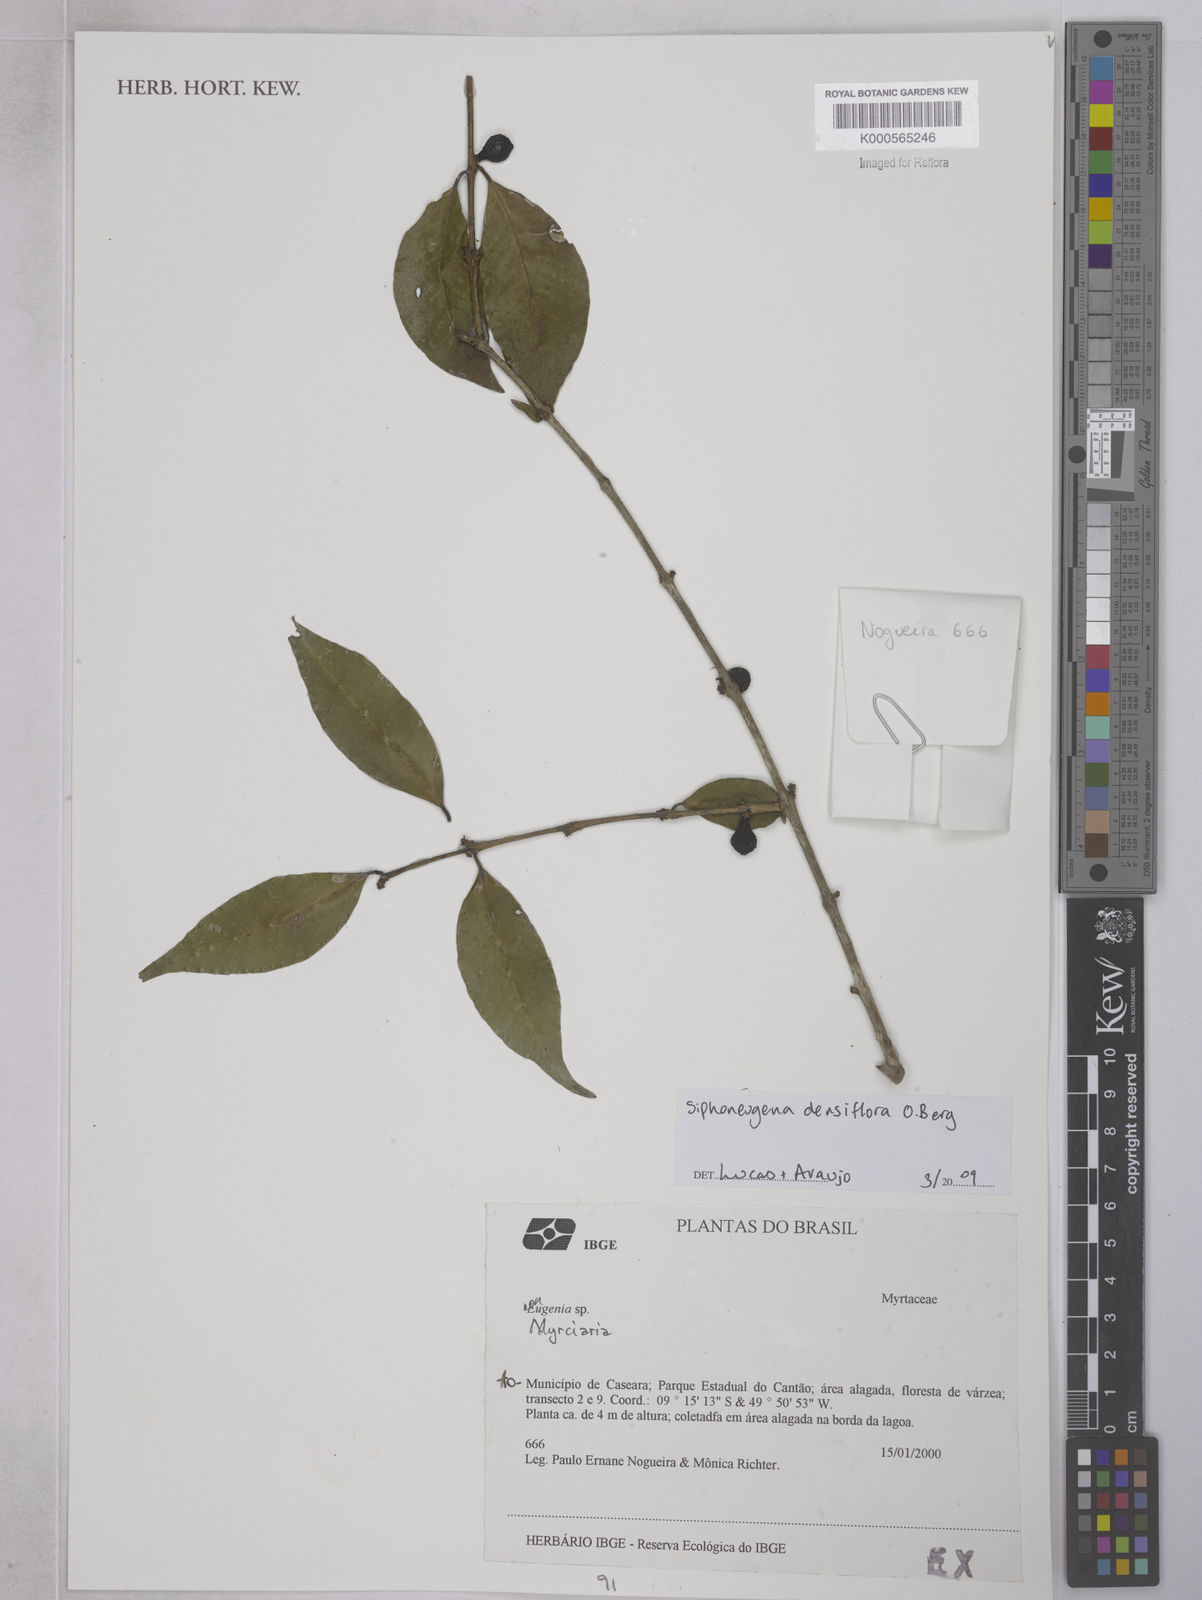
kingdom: Plantae
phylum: Tracheophyta
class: Magnoliopsida
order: Myrtales
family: Myrtaceae
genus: Siphoneugena
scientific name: Siphoneugena densiflora
